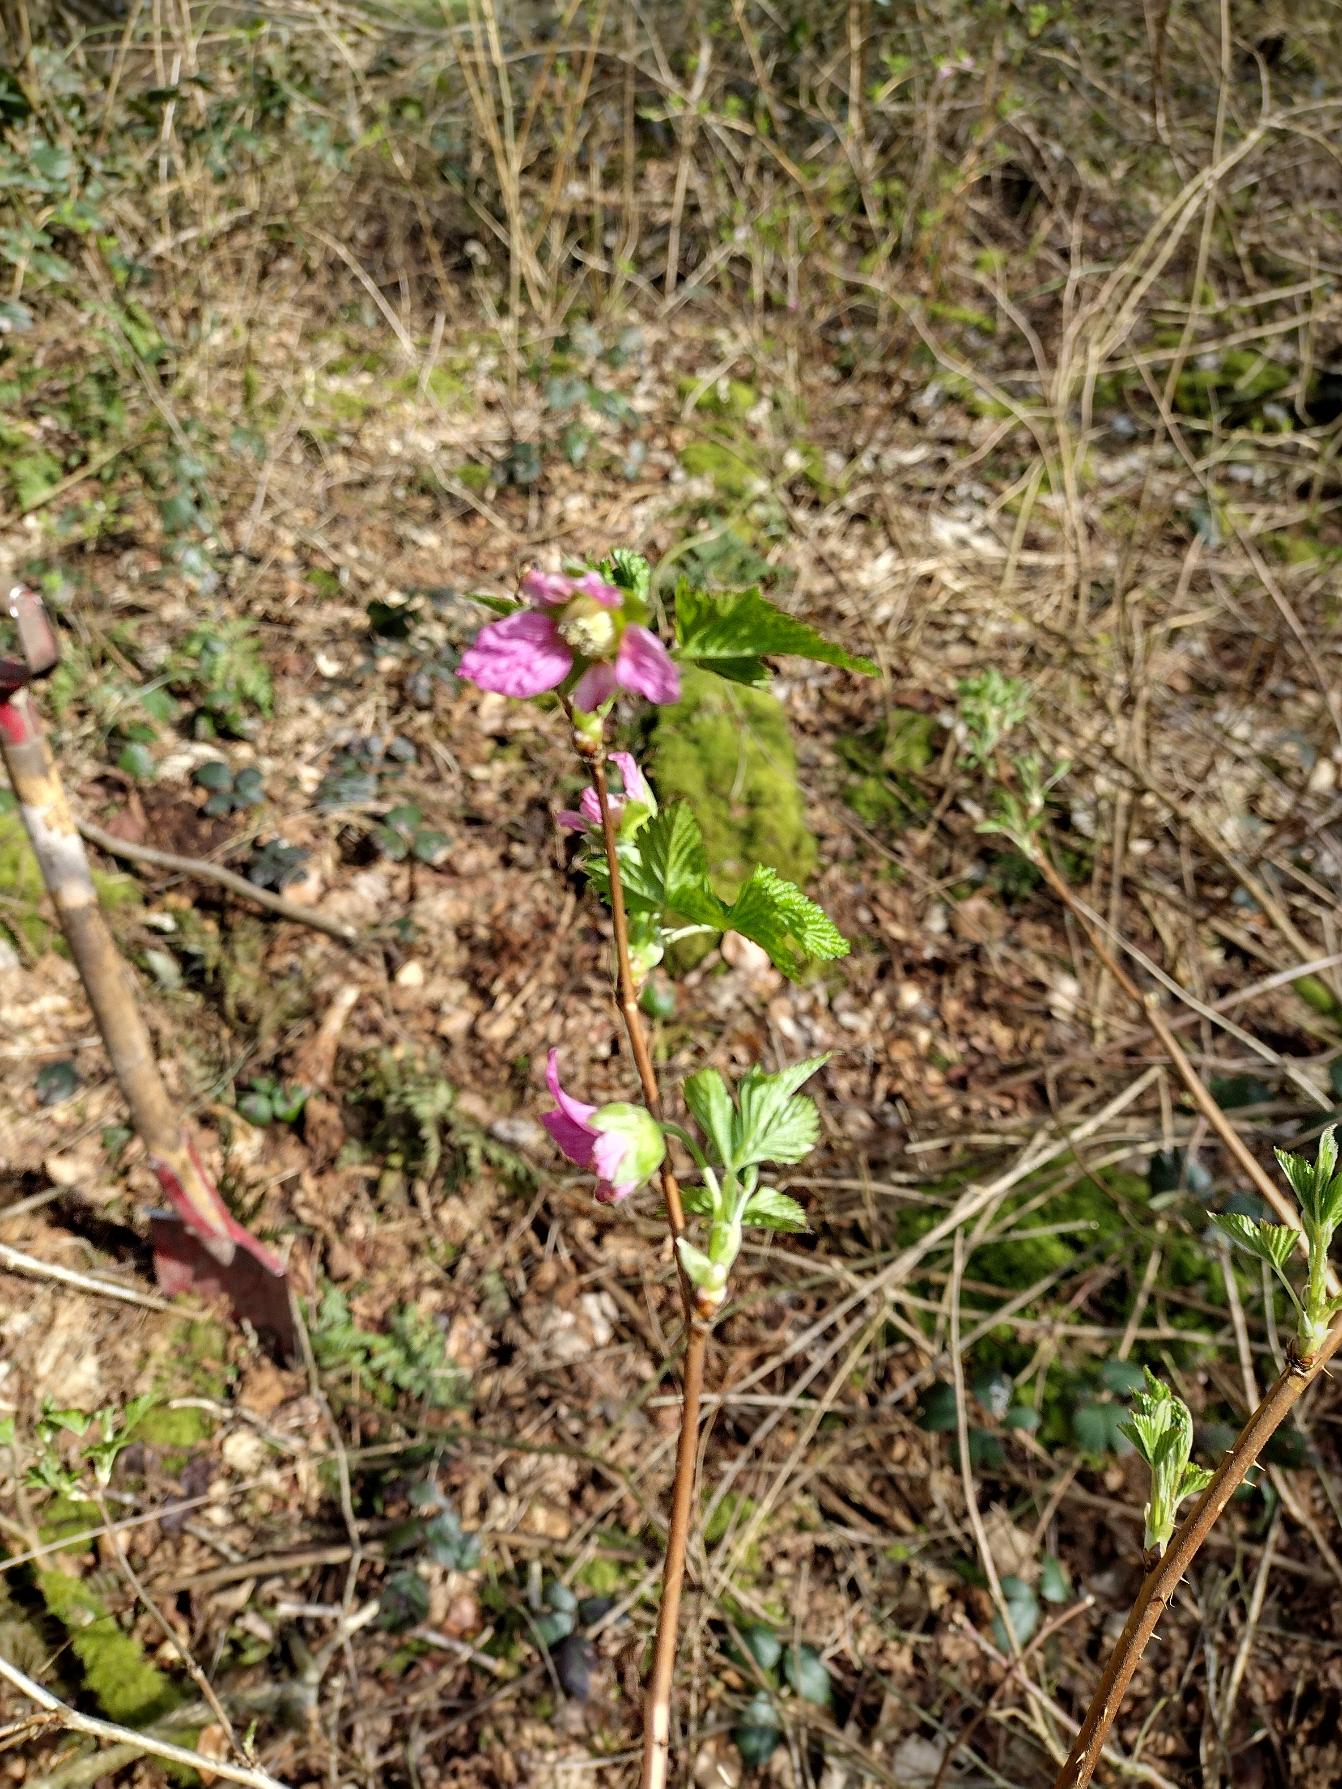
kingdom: Plantae
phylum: Tracheophyta
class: Magnoliopsida
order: Rosales
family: Rosaceae
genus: Rubus
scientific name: Rubus spectabilis
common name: Laksebær
